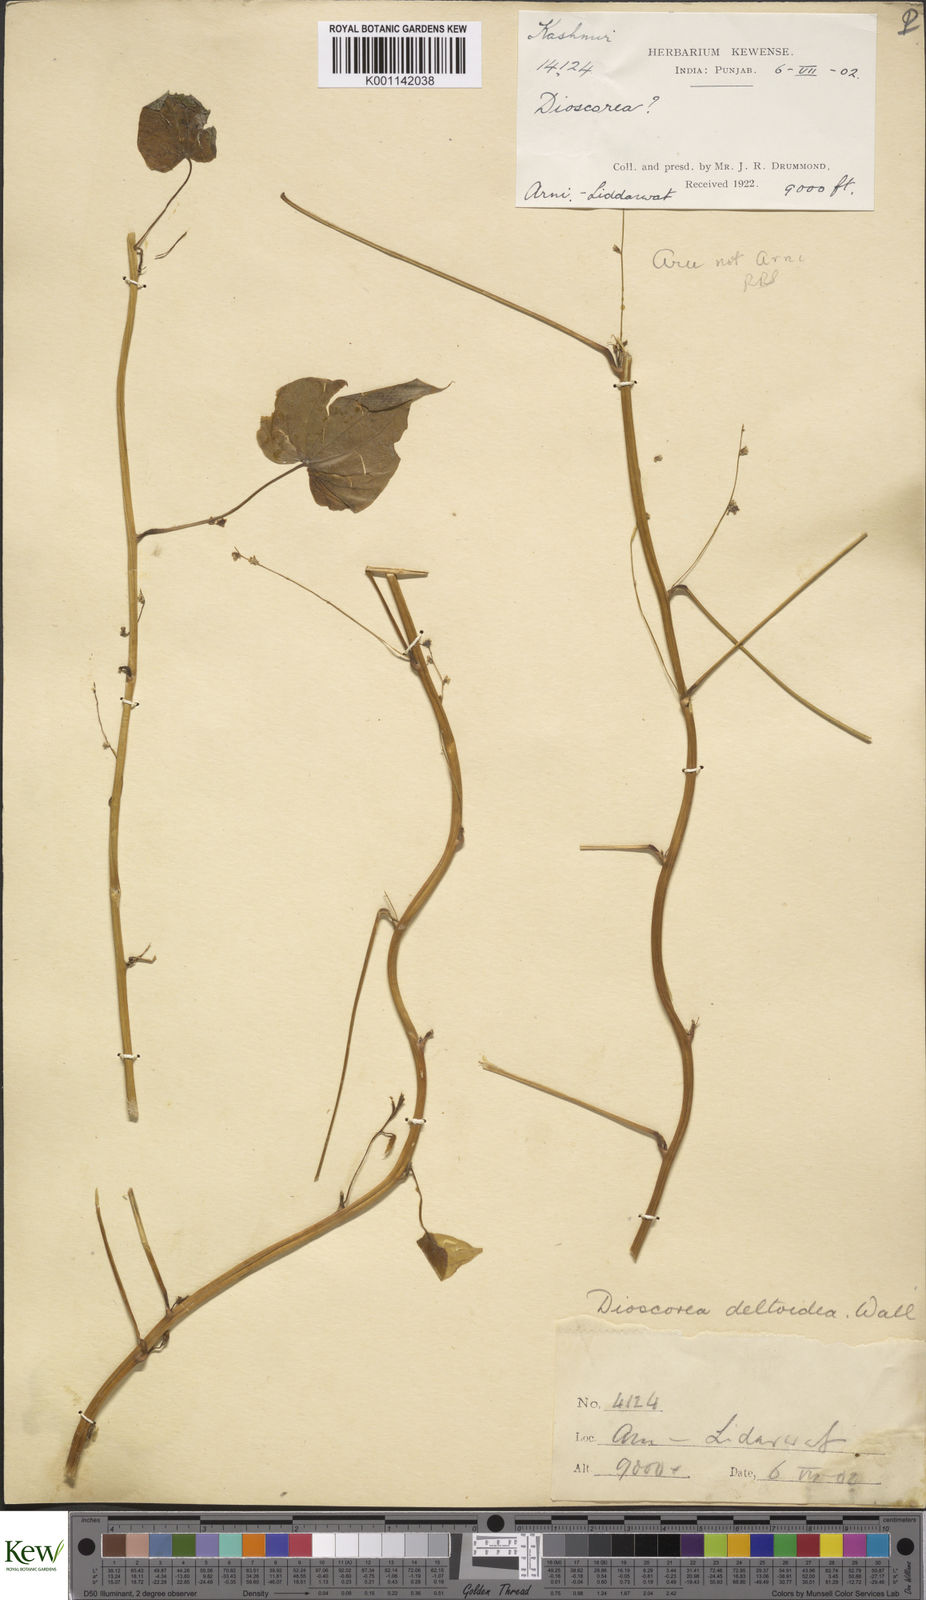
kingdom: Plantae
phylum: Tracheophyta
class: Liliopsida
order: Dioscoreales
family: Dioscoreaceae
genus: Dioscorea
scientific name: Dioscorea deltoidea
